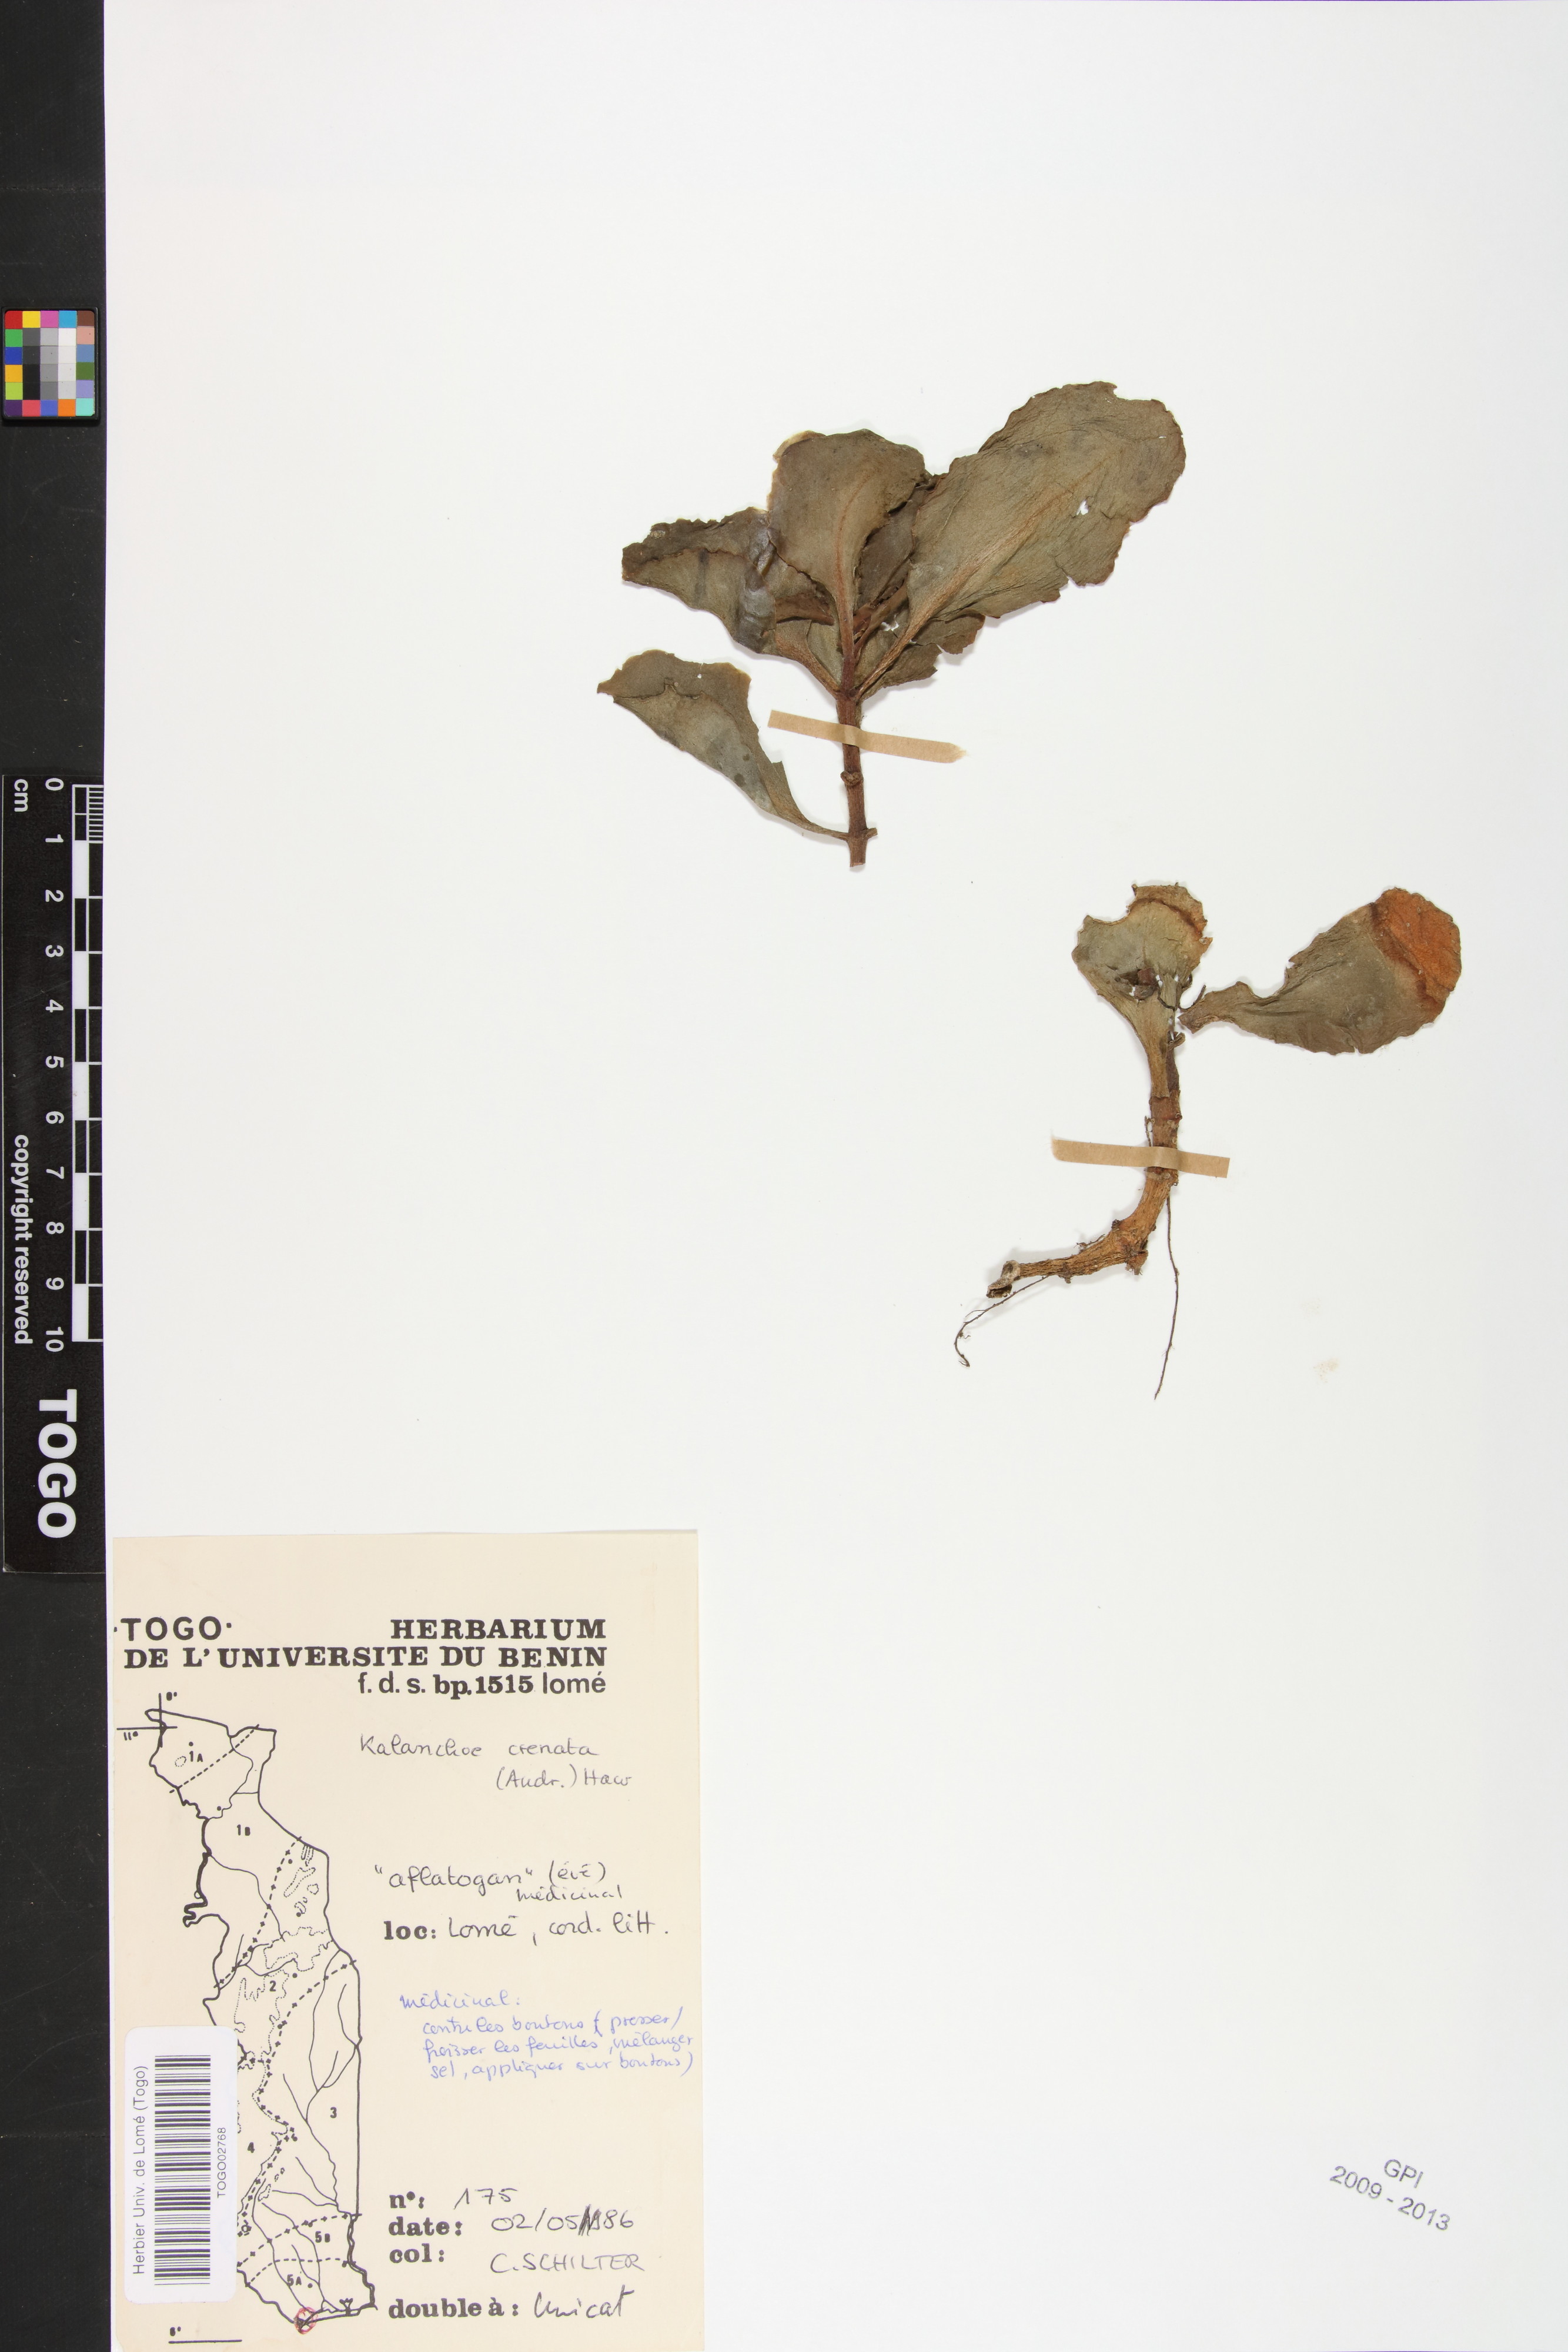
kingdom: Plantae
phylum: Tracheophyta
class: Magnoliopsida
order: Saxifragales
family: Crassulaceae
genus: Kalanchoe
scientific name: Kalanchoe crenata
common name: Neverdie
